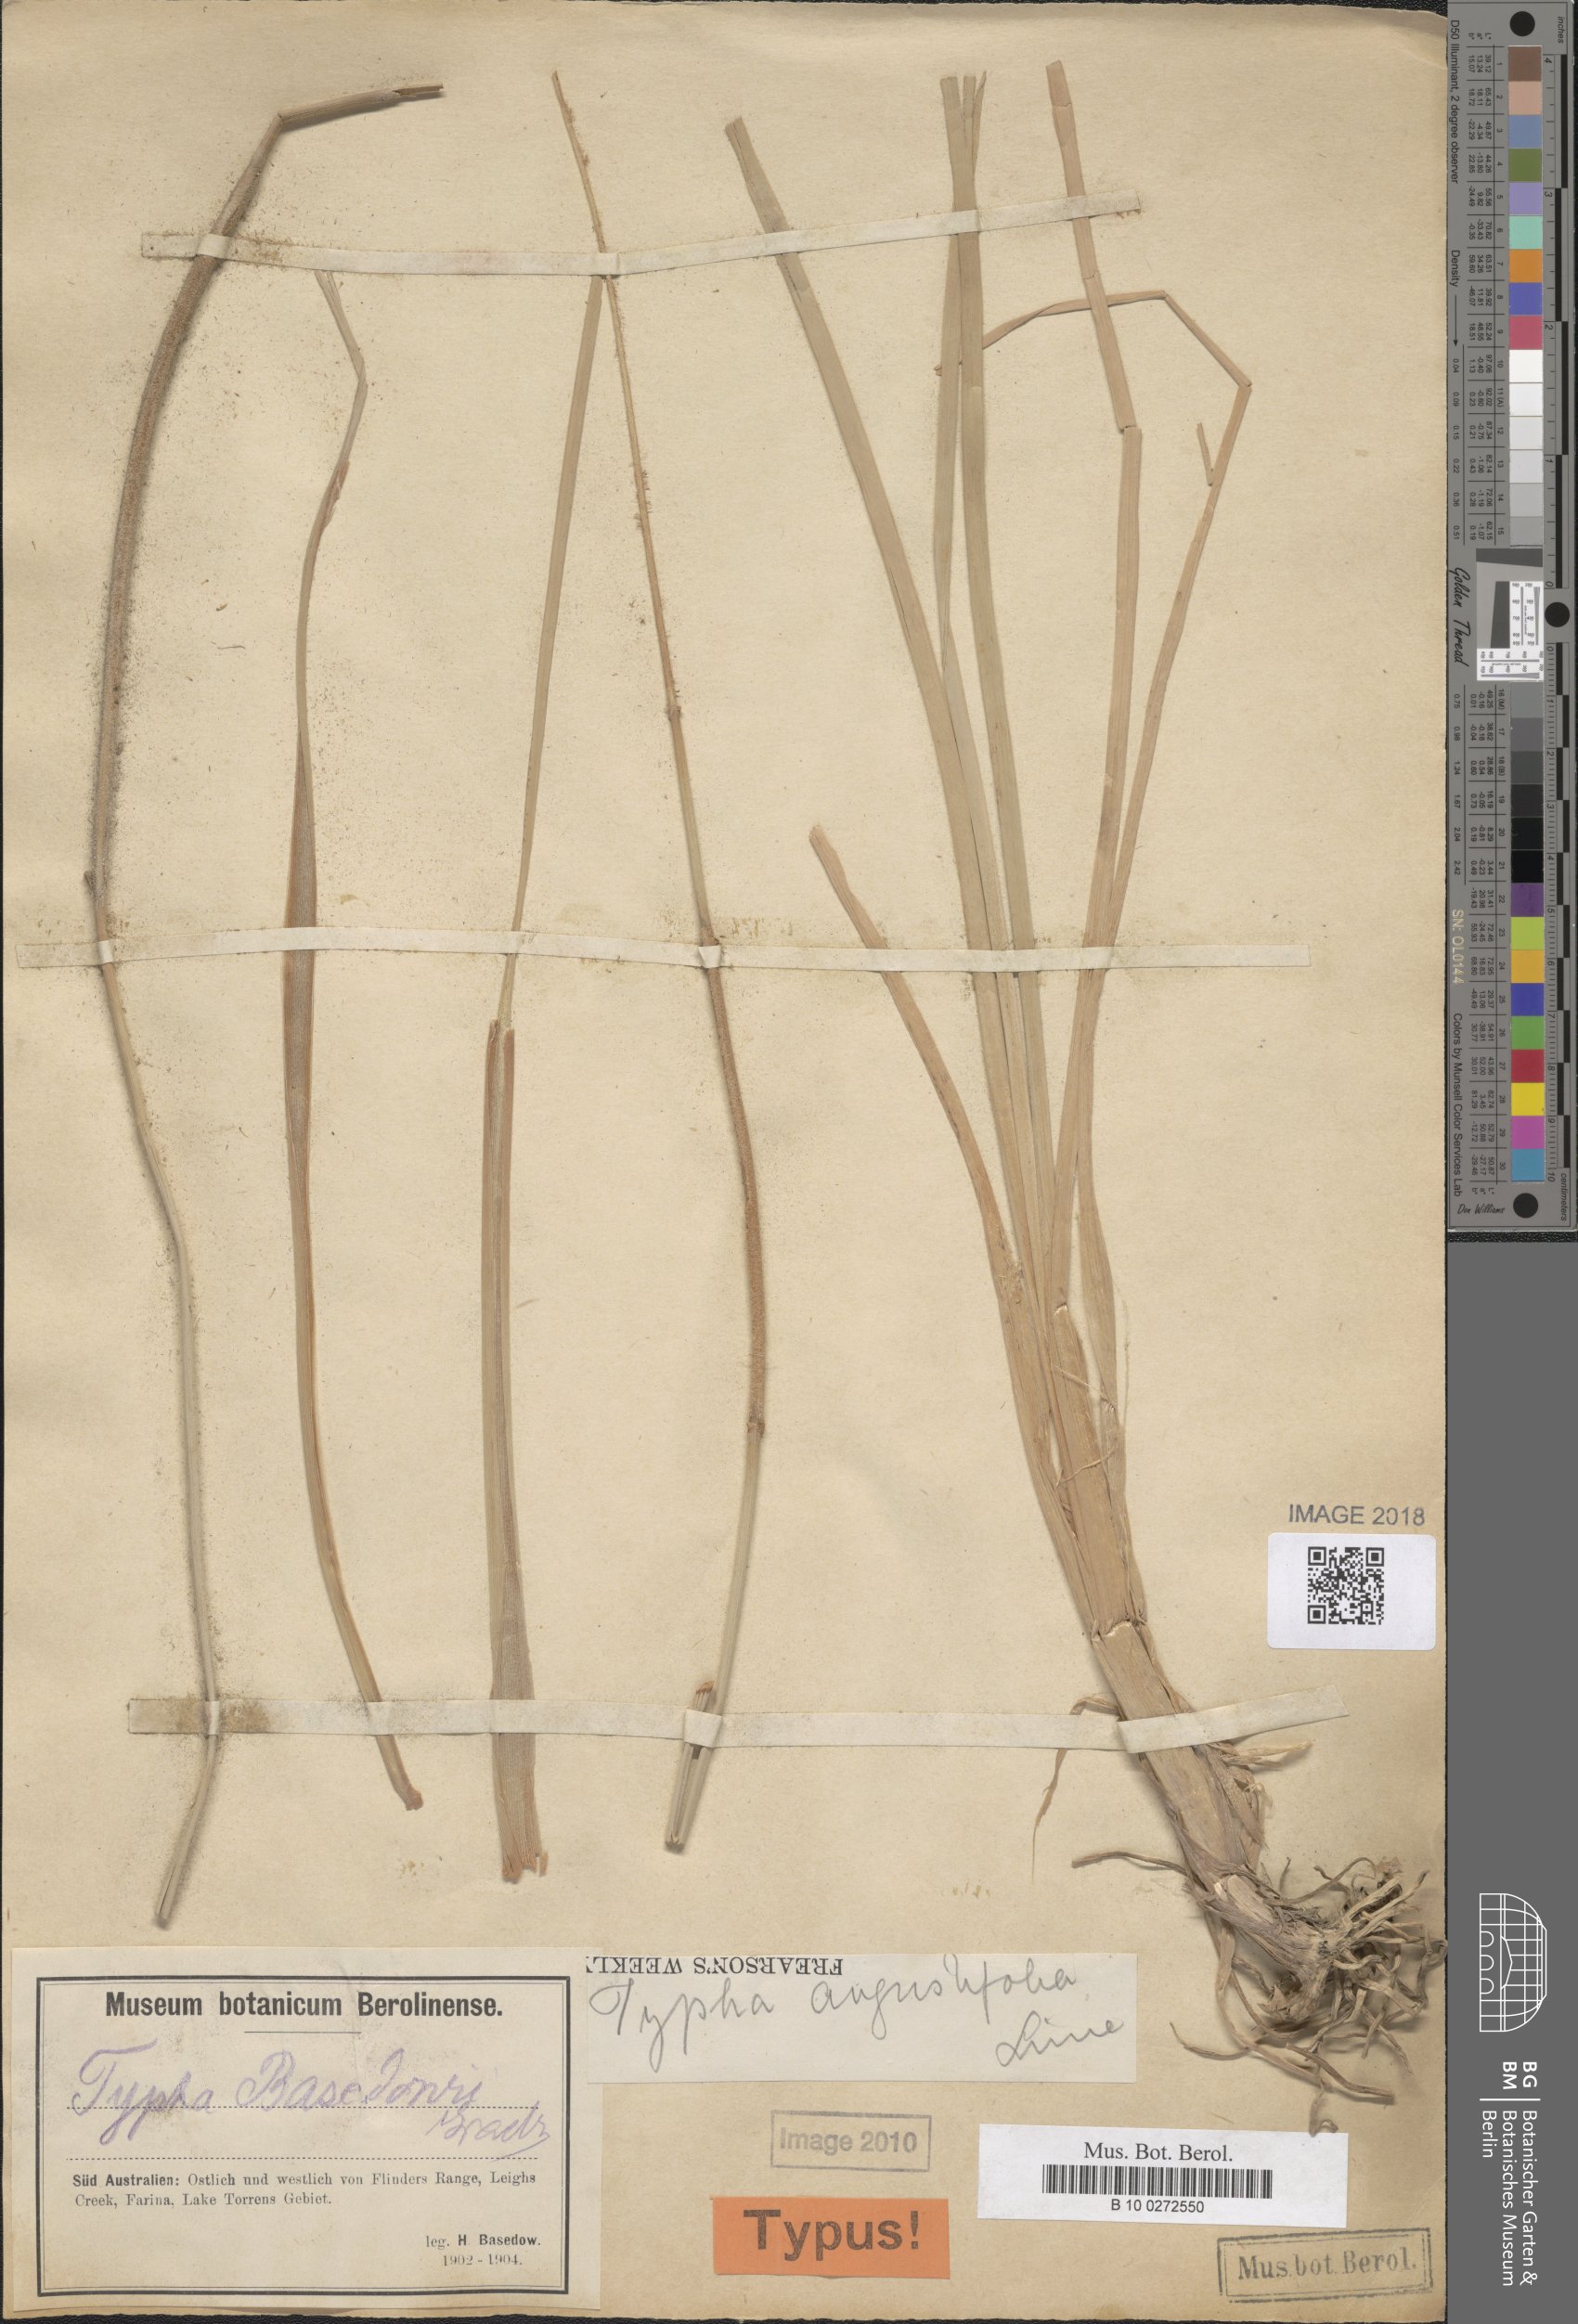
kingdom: Plantae
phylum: Tracheophyta
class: Liliopsida
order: Poales
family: Typhaceae
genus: Typha
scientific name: Typha domingensis
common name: Southern cattail
